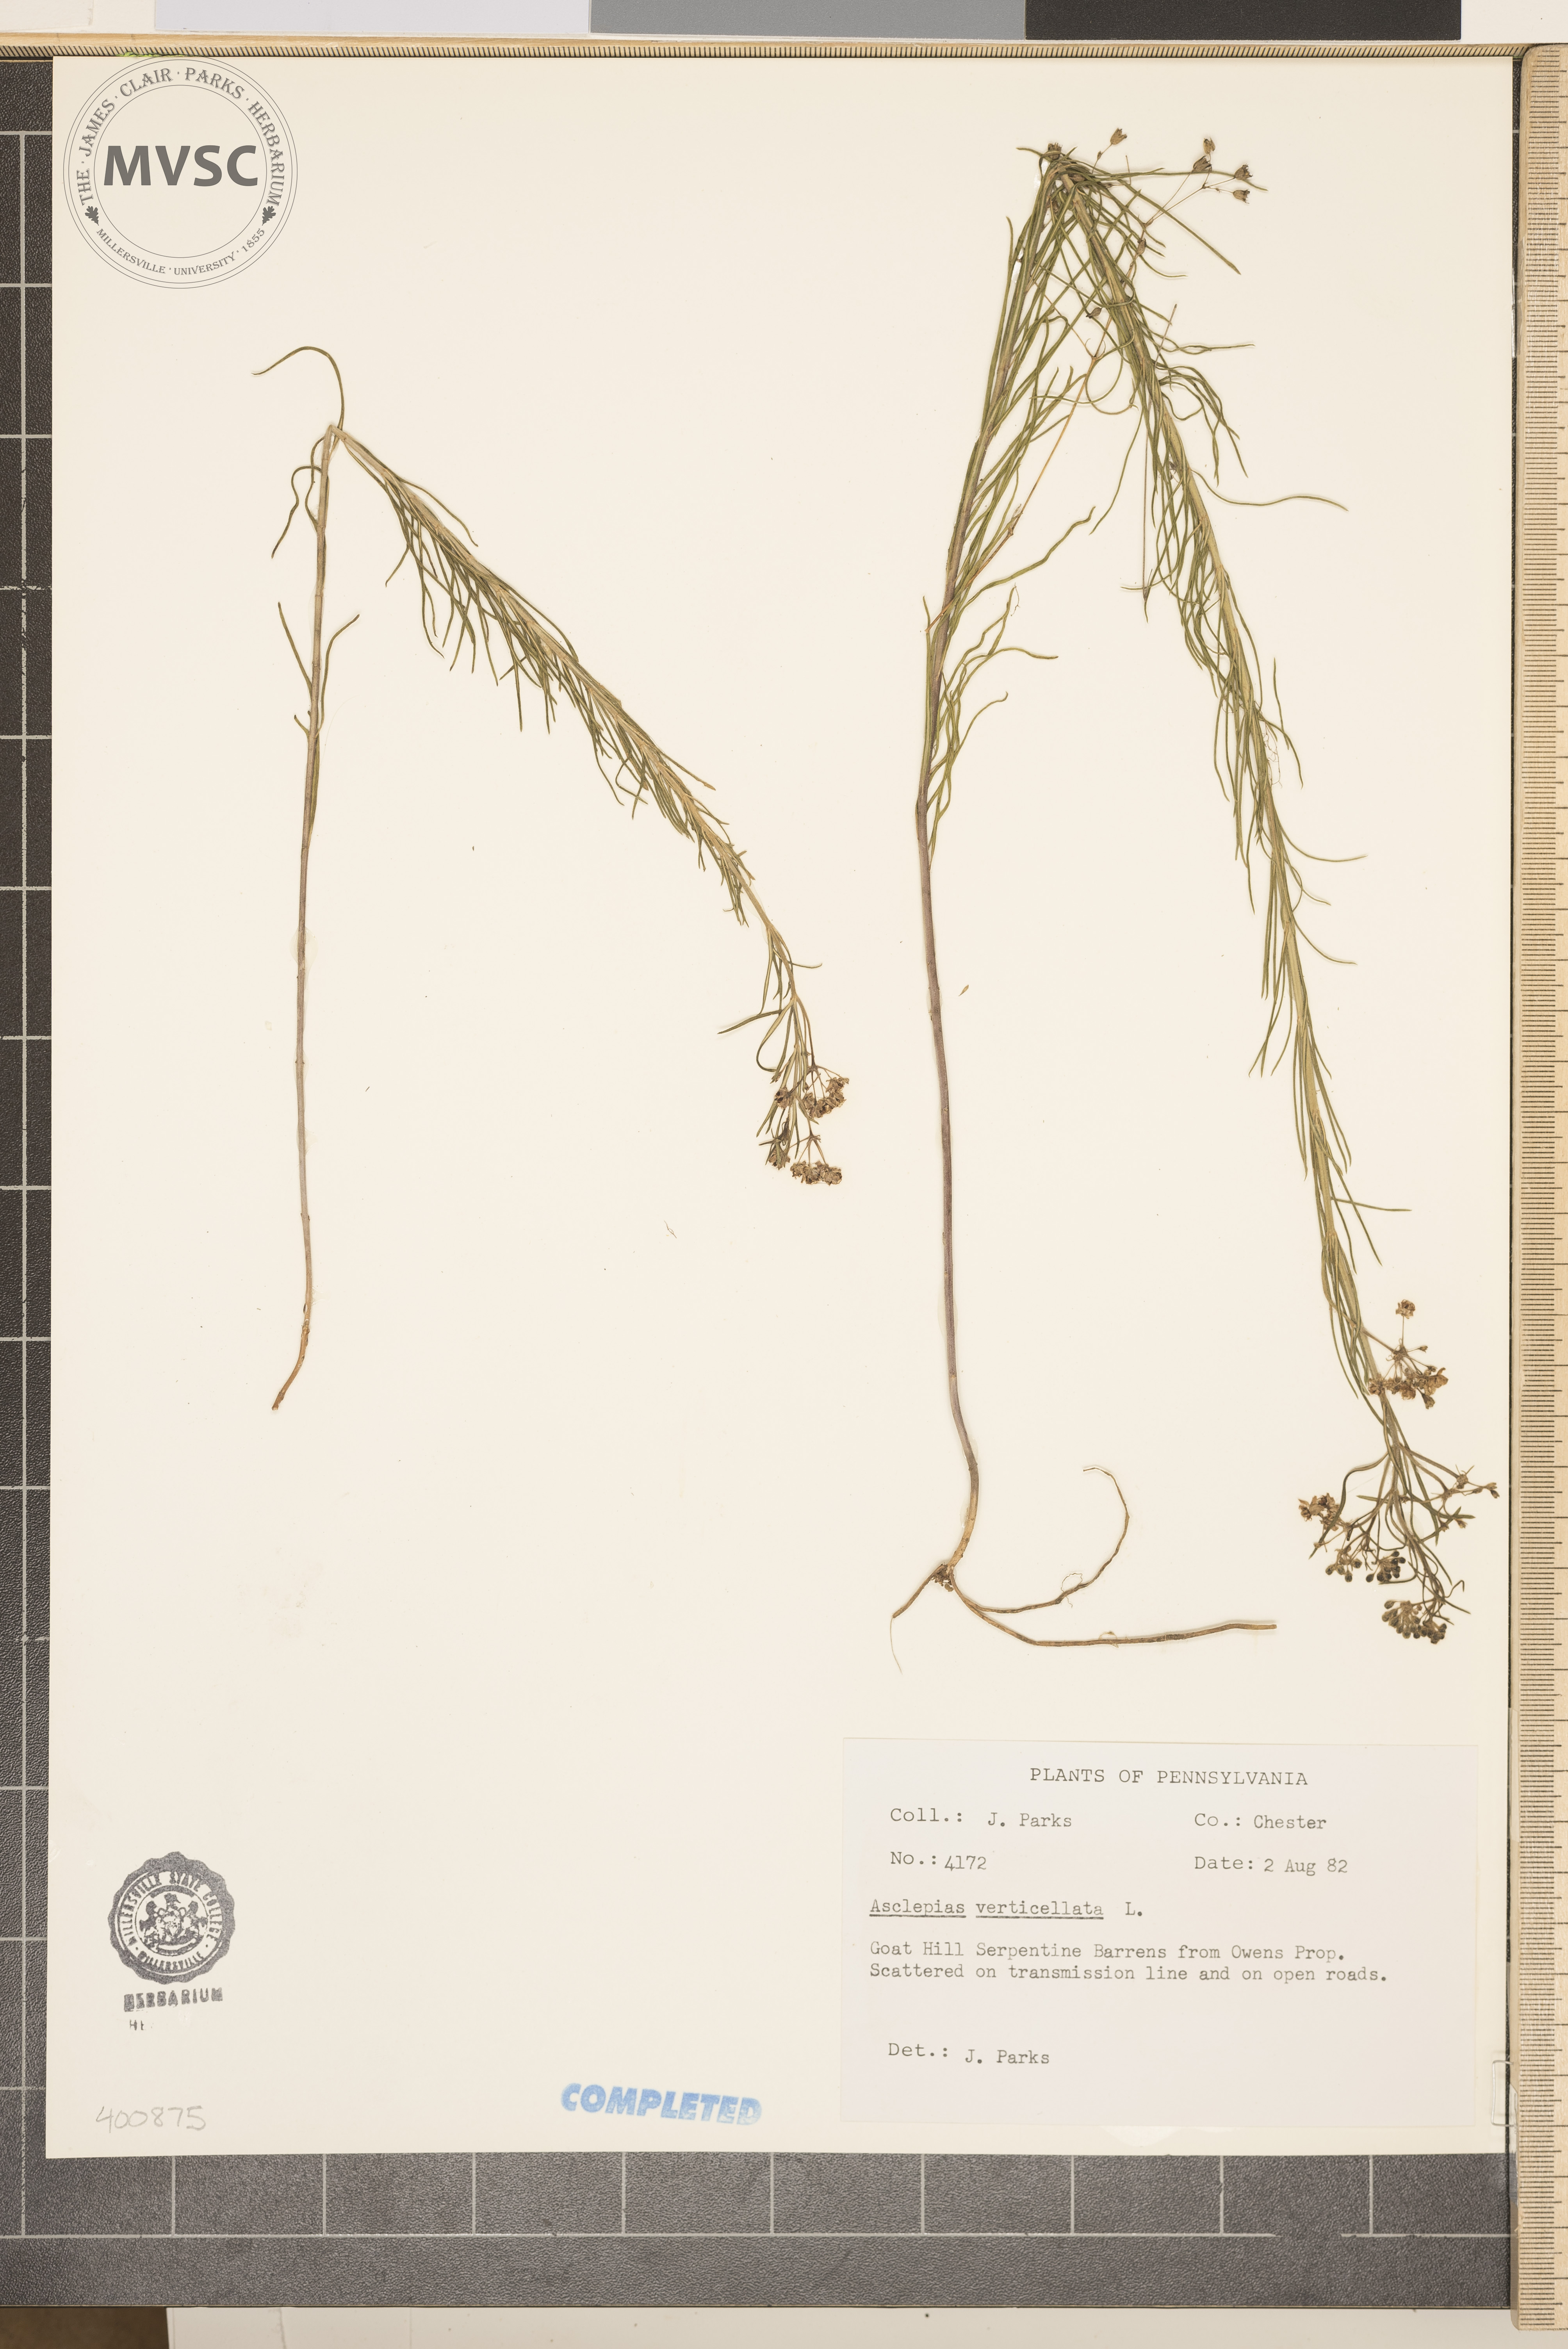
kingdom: Plantae
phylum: Tracheophyta
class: Magnoliopsida
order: Gentianales
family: Apocynaceae
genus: Asclepias
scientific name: Asclepias verticillata
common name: milkweed
